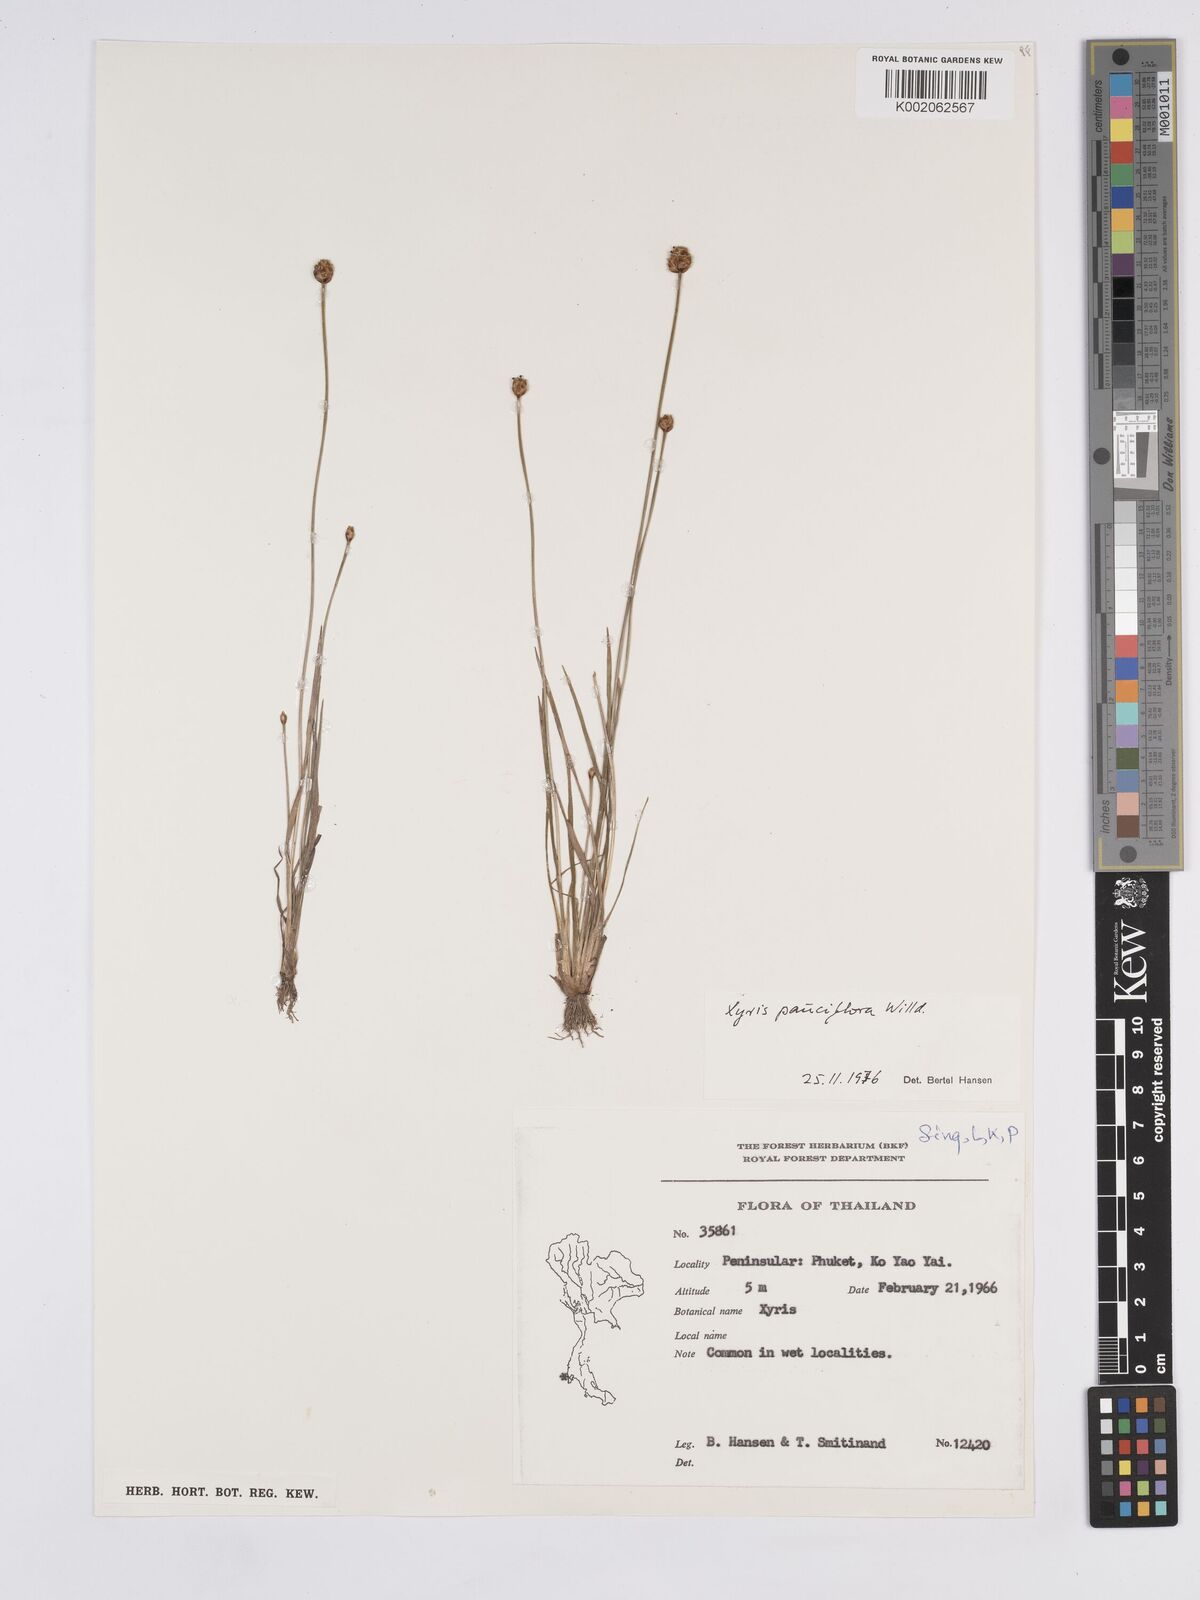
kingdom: Plantae
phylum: Tracheophyta
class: Liliopsida
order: Poales
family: Xyridaceae
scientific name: Xyridaceae
